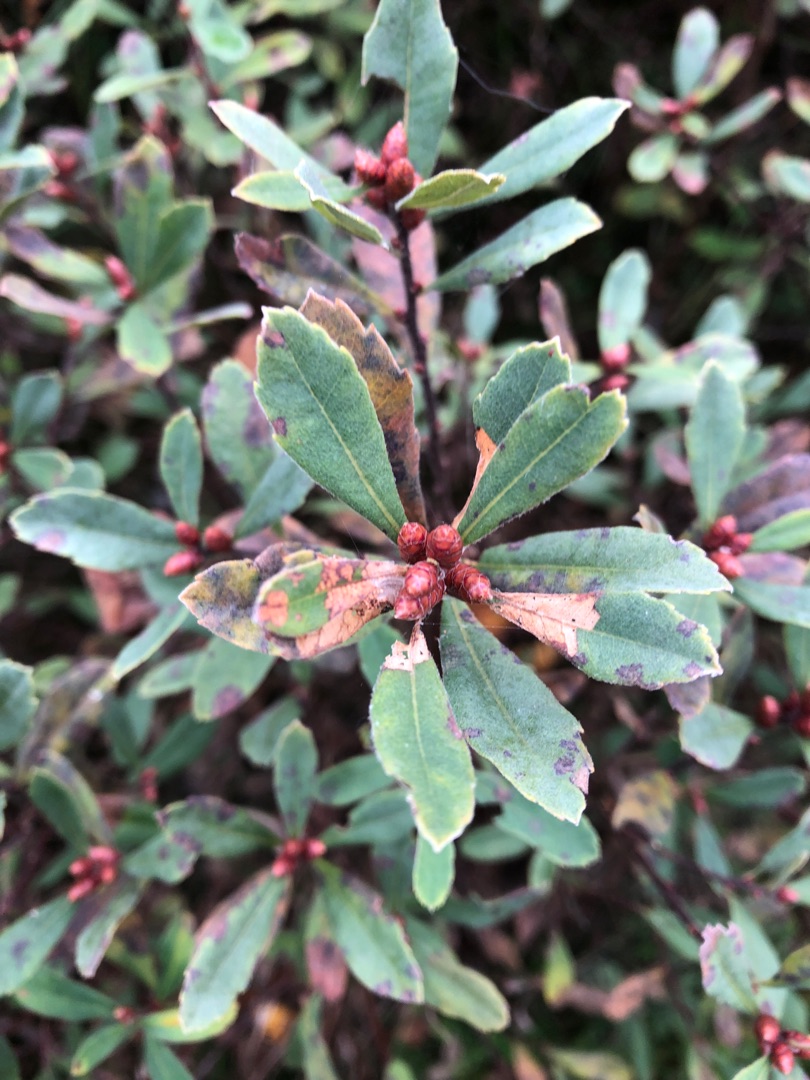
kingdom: Plantae
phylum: Tracheophyta
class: Magnoliopsida
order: Fagales
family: Myricaceae
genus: Myrica
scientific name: Myrica gale
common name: Pors
